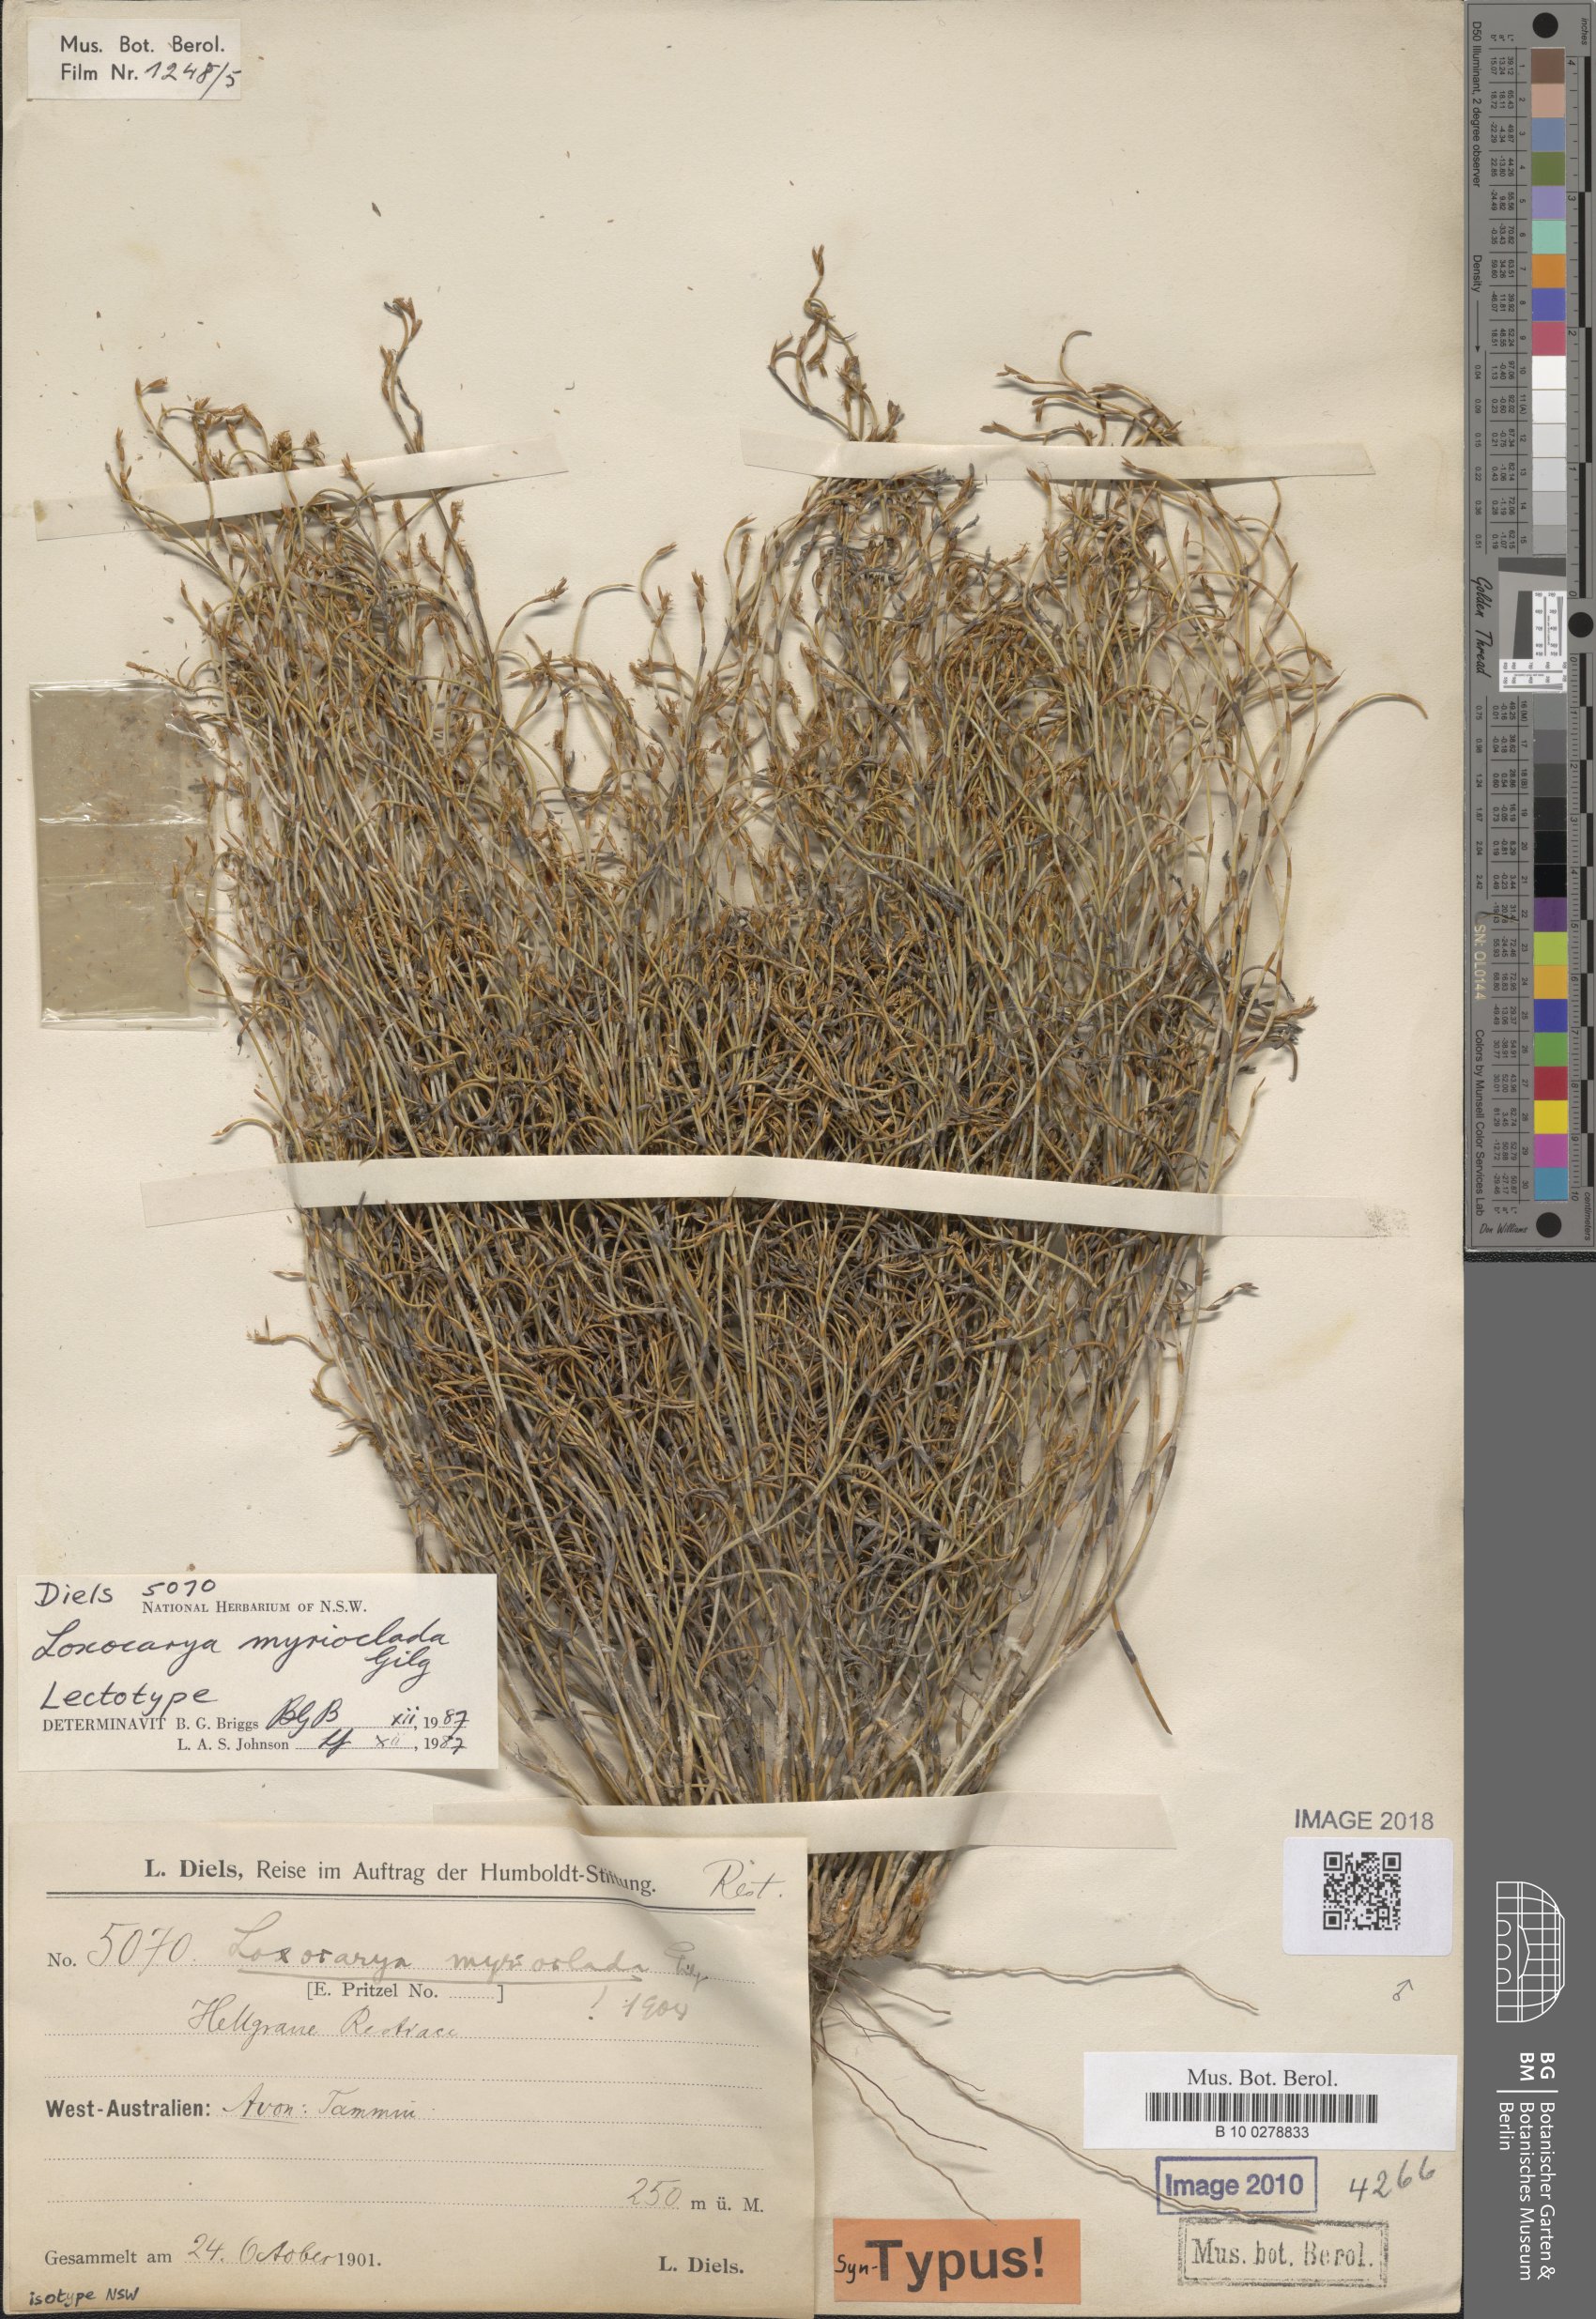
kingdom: Plantae
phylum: Tracheophyta
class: Liliopsida
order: Poales
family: Restionaceae
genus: Loxocarya
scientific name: Loxocarya myrioclada
